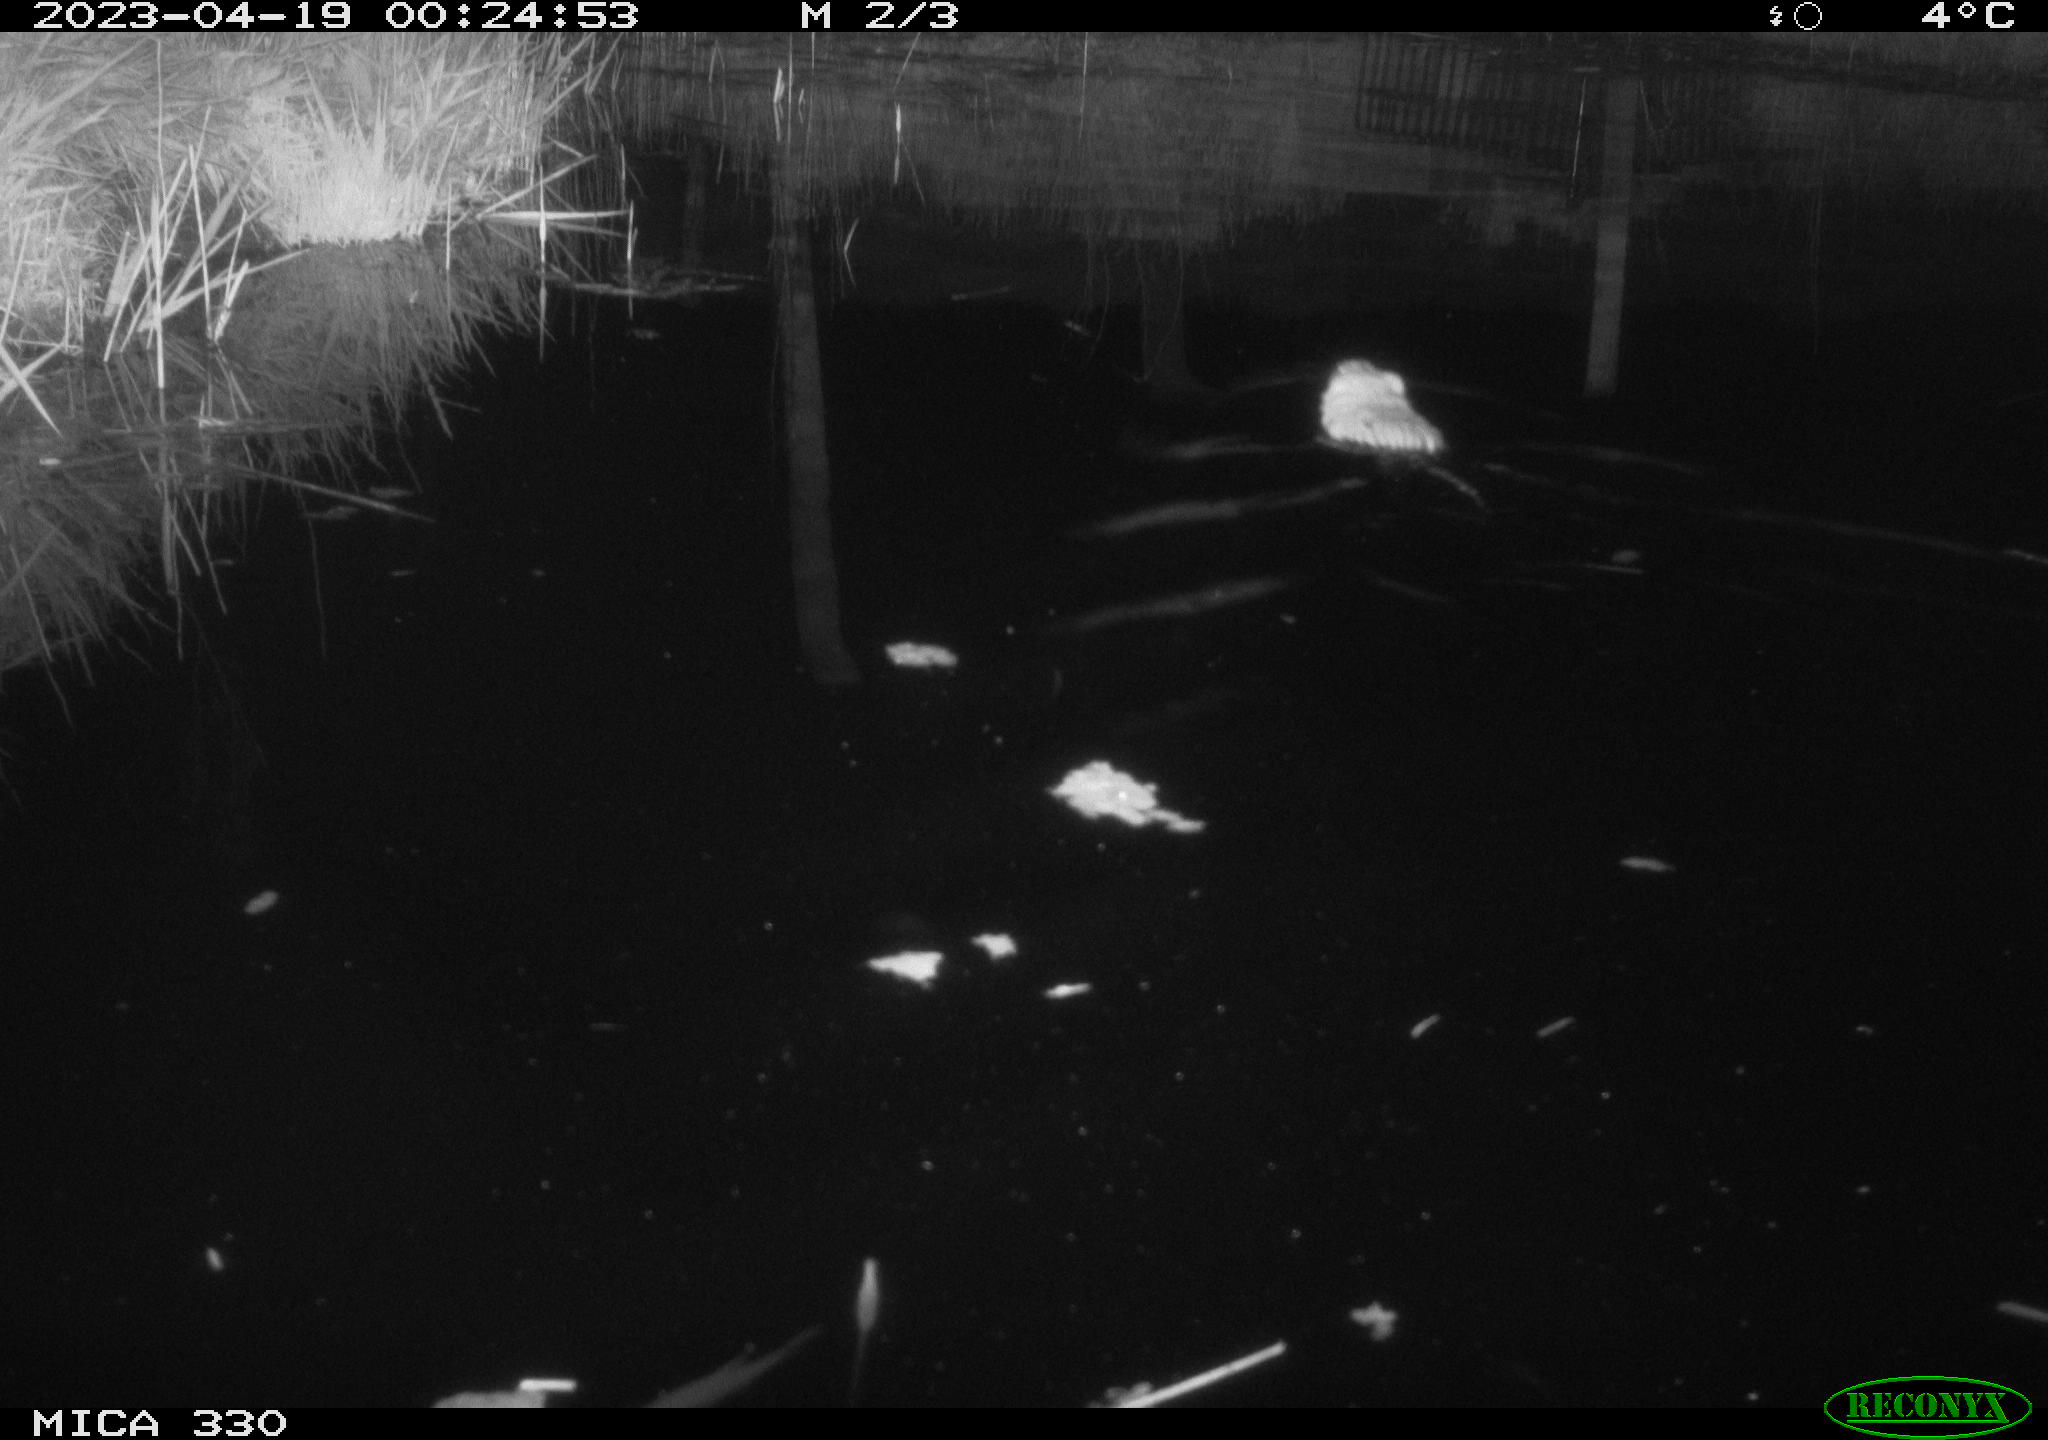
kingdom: Animalia
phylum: Chordata
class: Mammalia
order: Rodentia
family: Cricetidae
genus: Ondatra
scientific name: Ondatra zibethicus
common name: Muskrat
